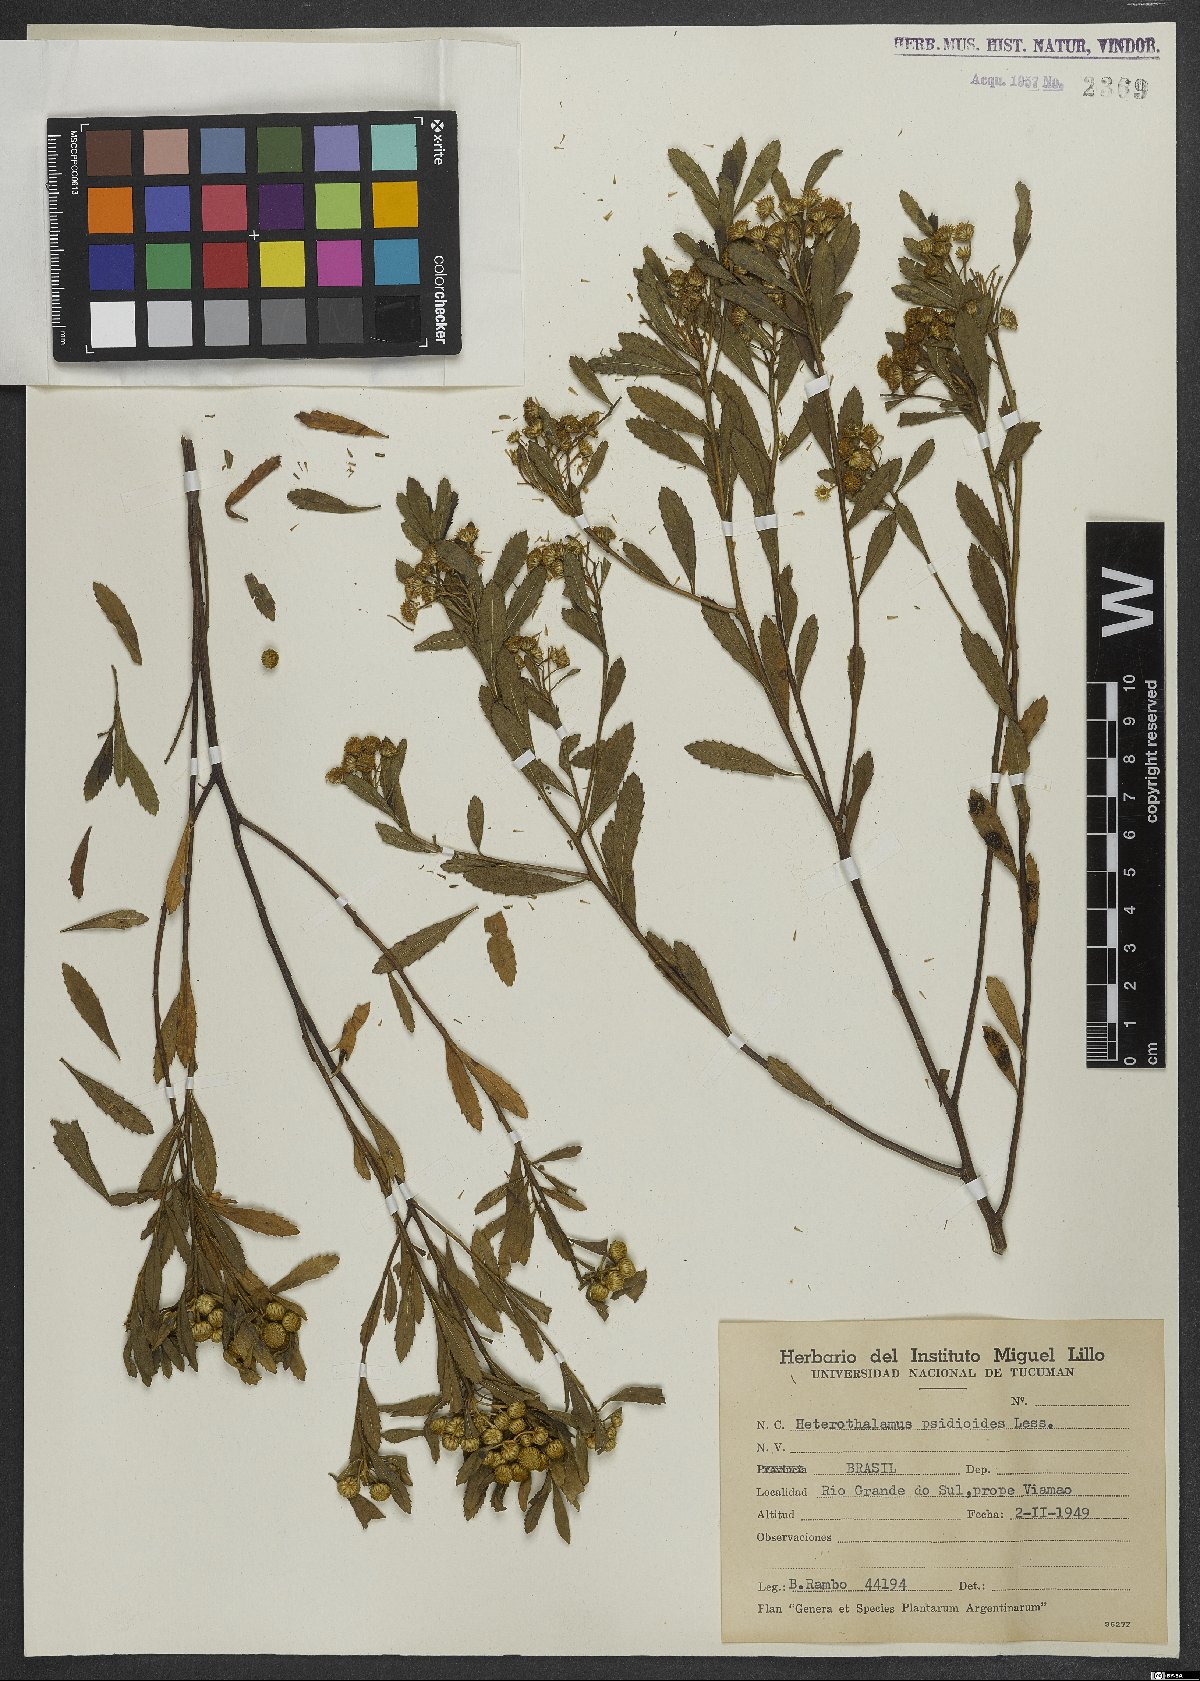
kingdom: Plantae
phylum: Tracheophyta
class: Magnoliopsida
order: Asterales
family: Asteraceae
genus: Baccharis
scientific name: Baccharis psiadioides
